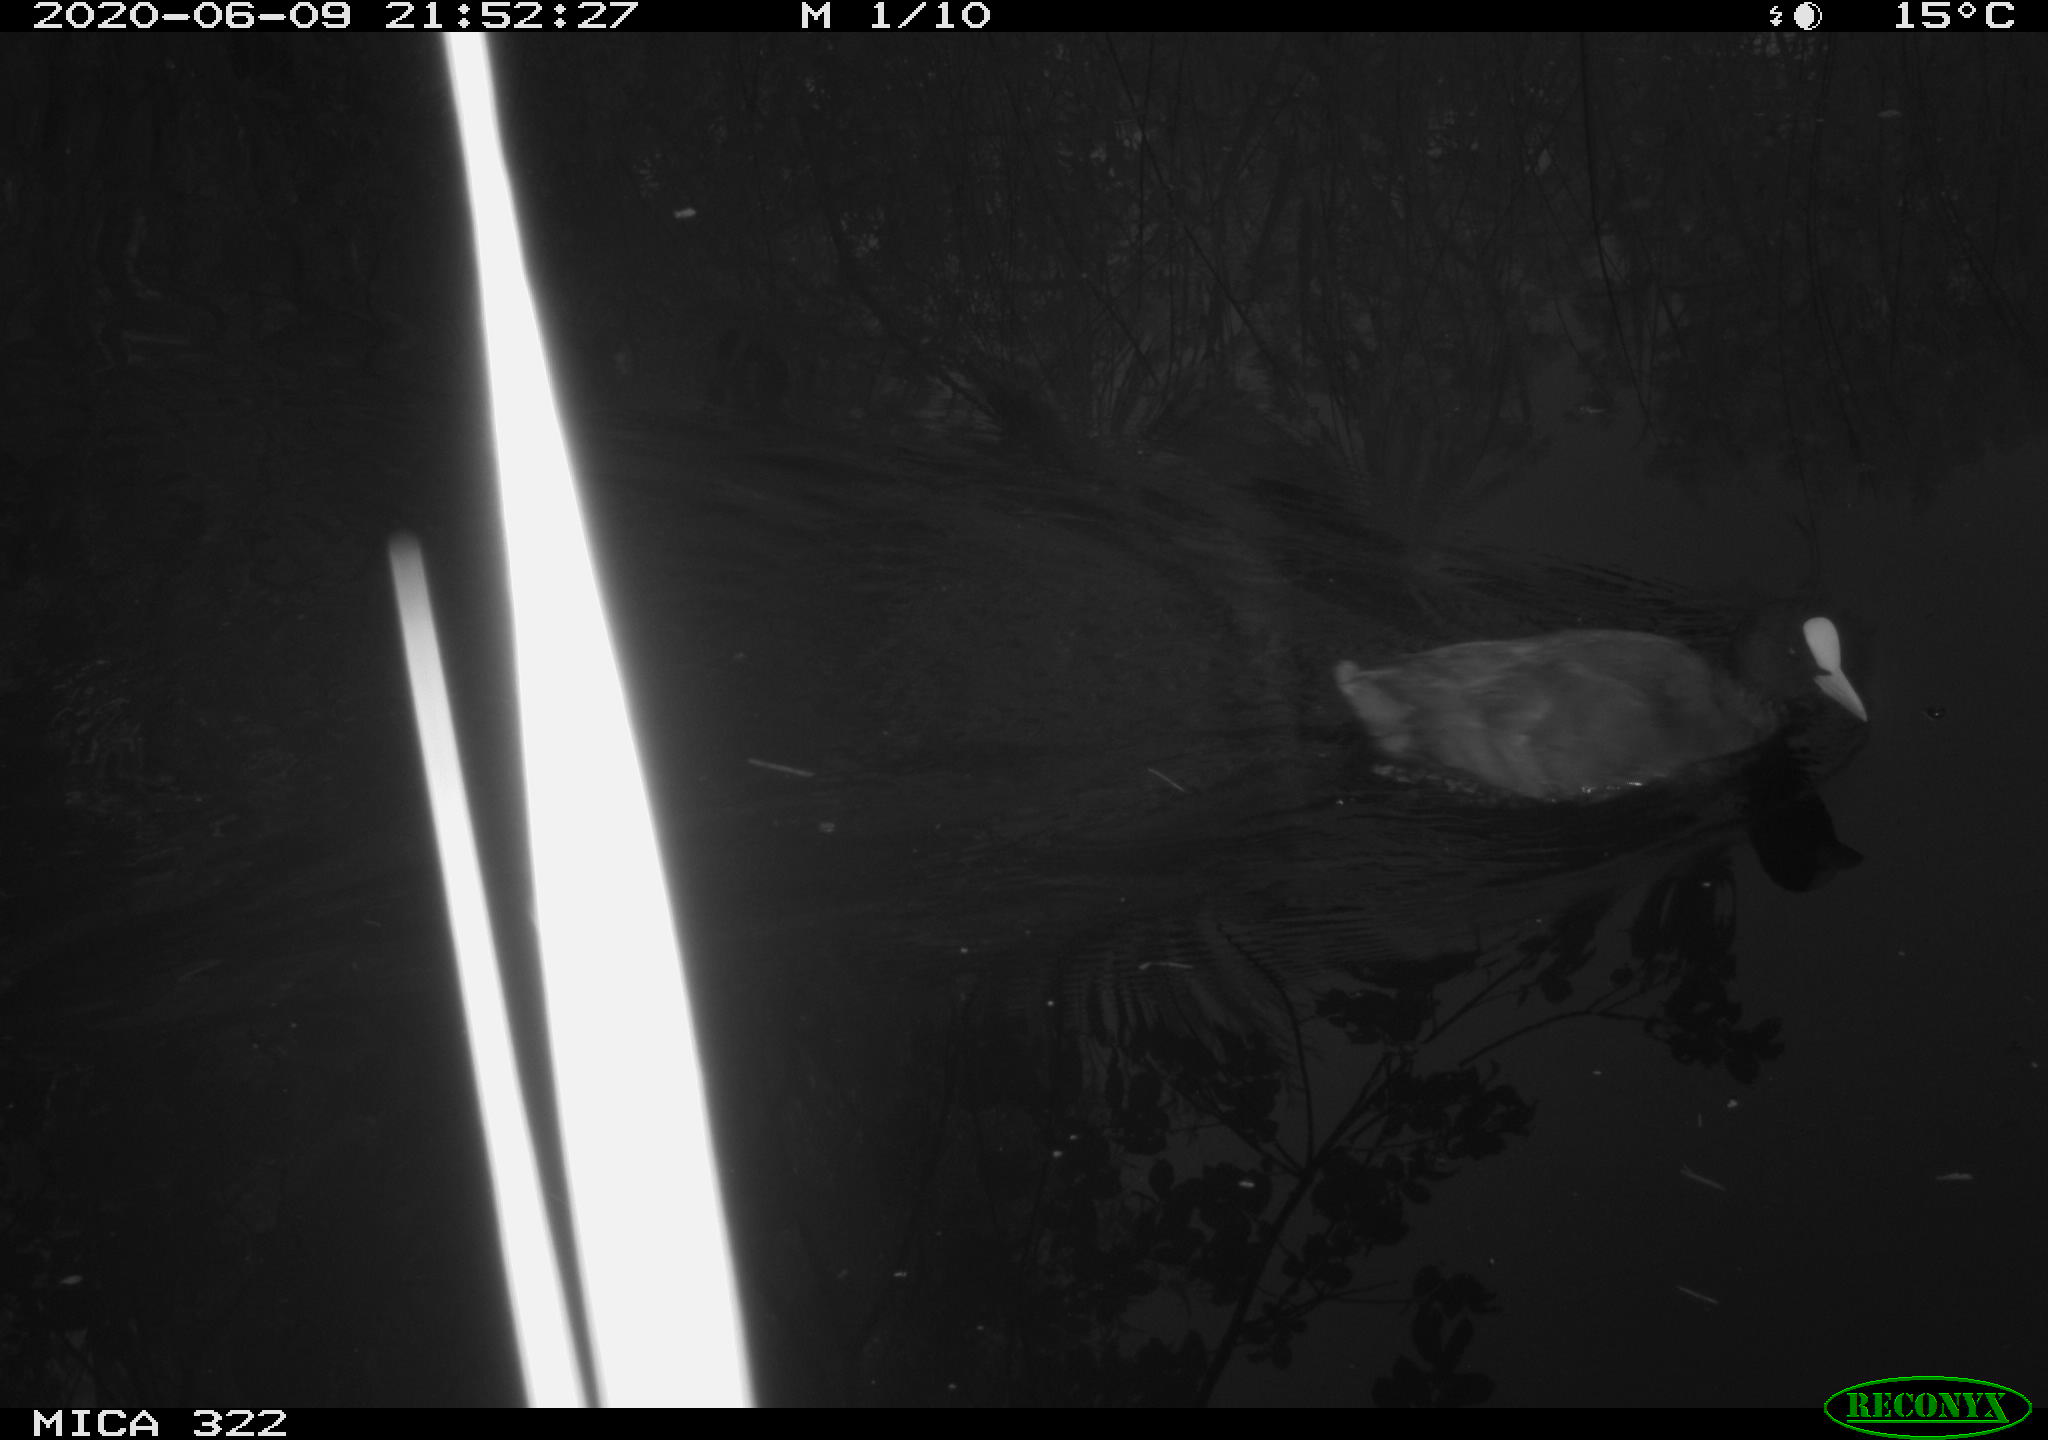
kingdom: Animalia
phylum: Chordata
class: Aves
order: Gruiformes
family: Rallidae
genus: Gallinula
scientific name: Gallinula chloropus
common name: Common moorhen
